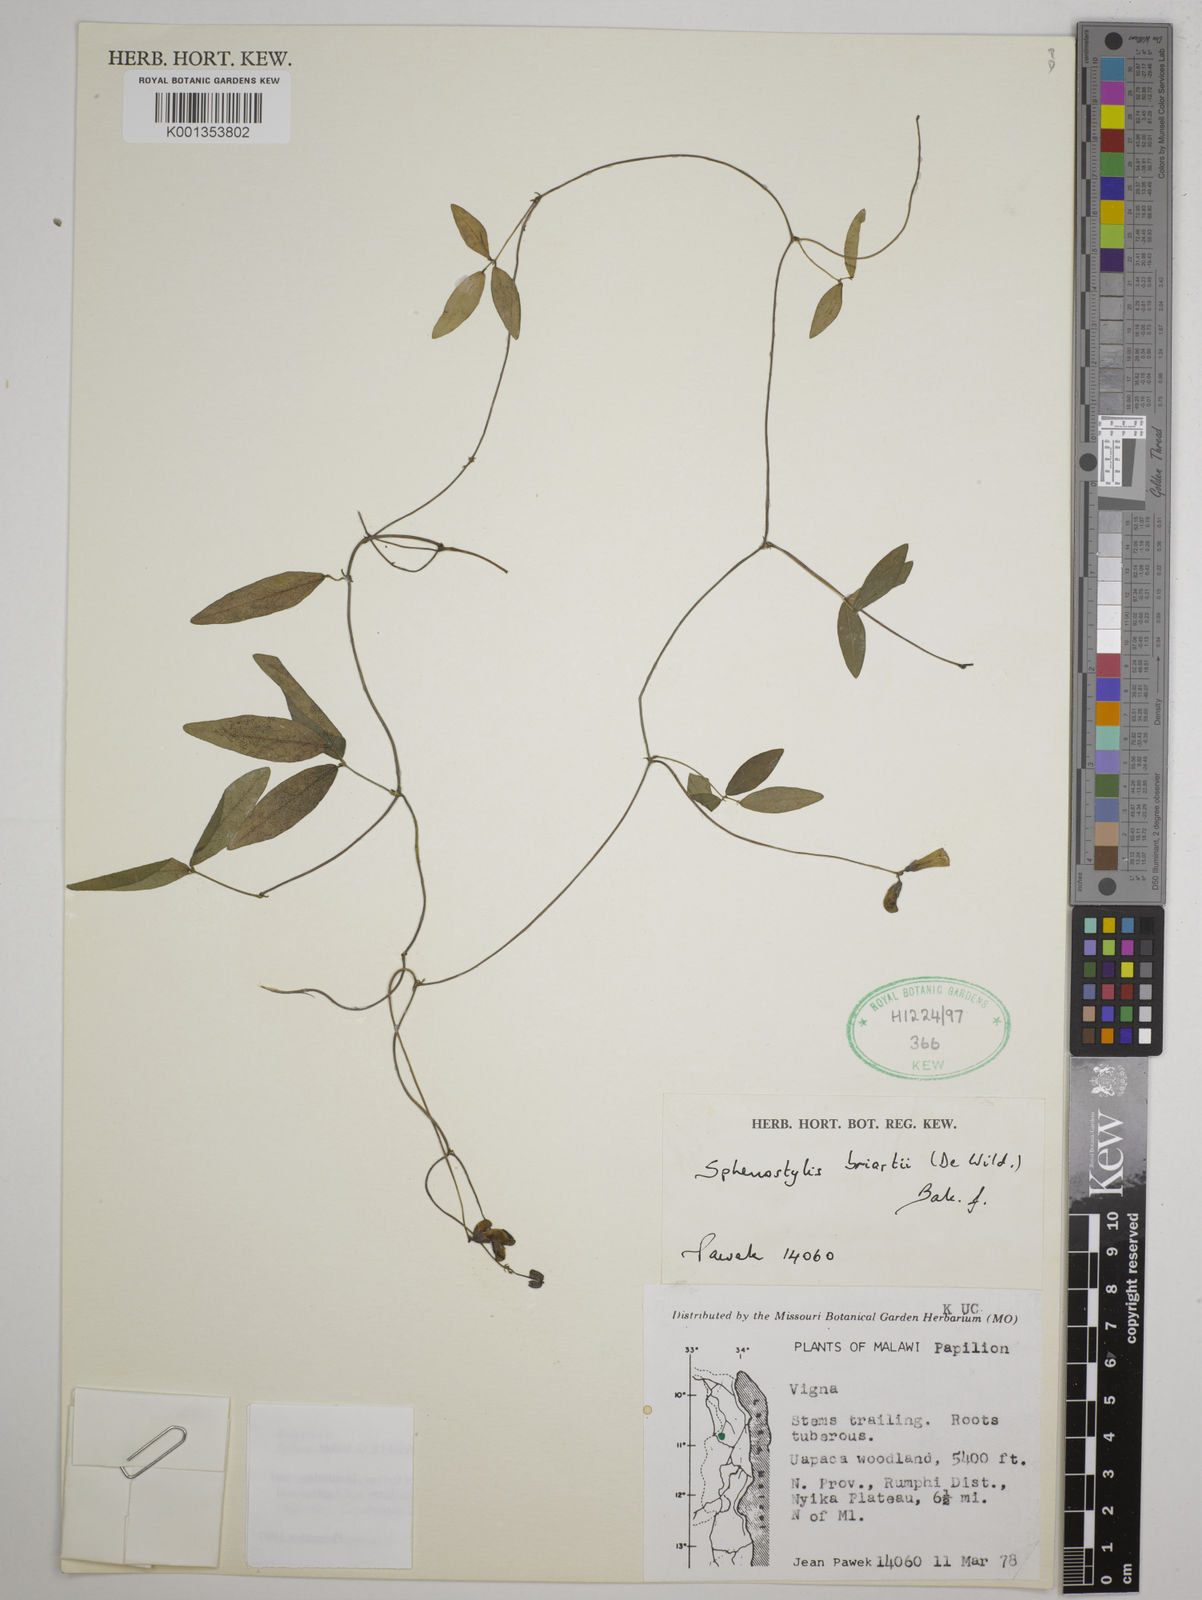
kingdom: Plantae
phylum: Tracheophyta
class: Magnoliopsida
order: Fabales
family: Fabaceae
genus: Sphenostylis
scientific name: Sphenostylis briartii
